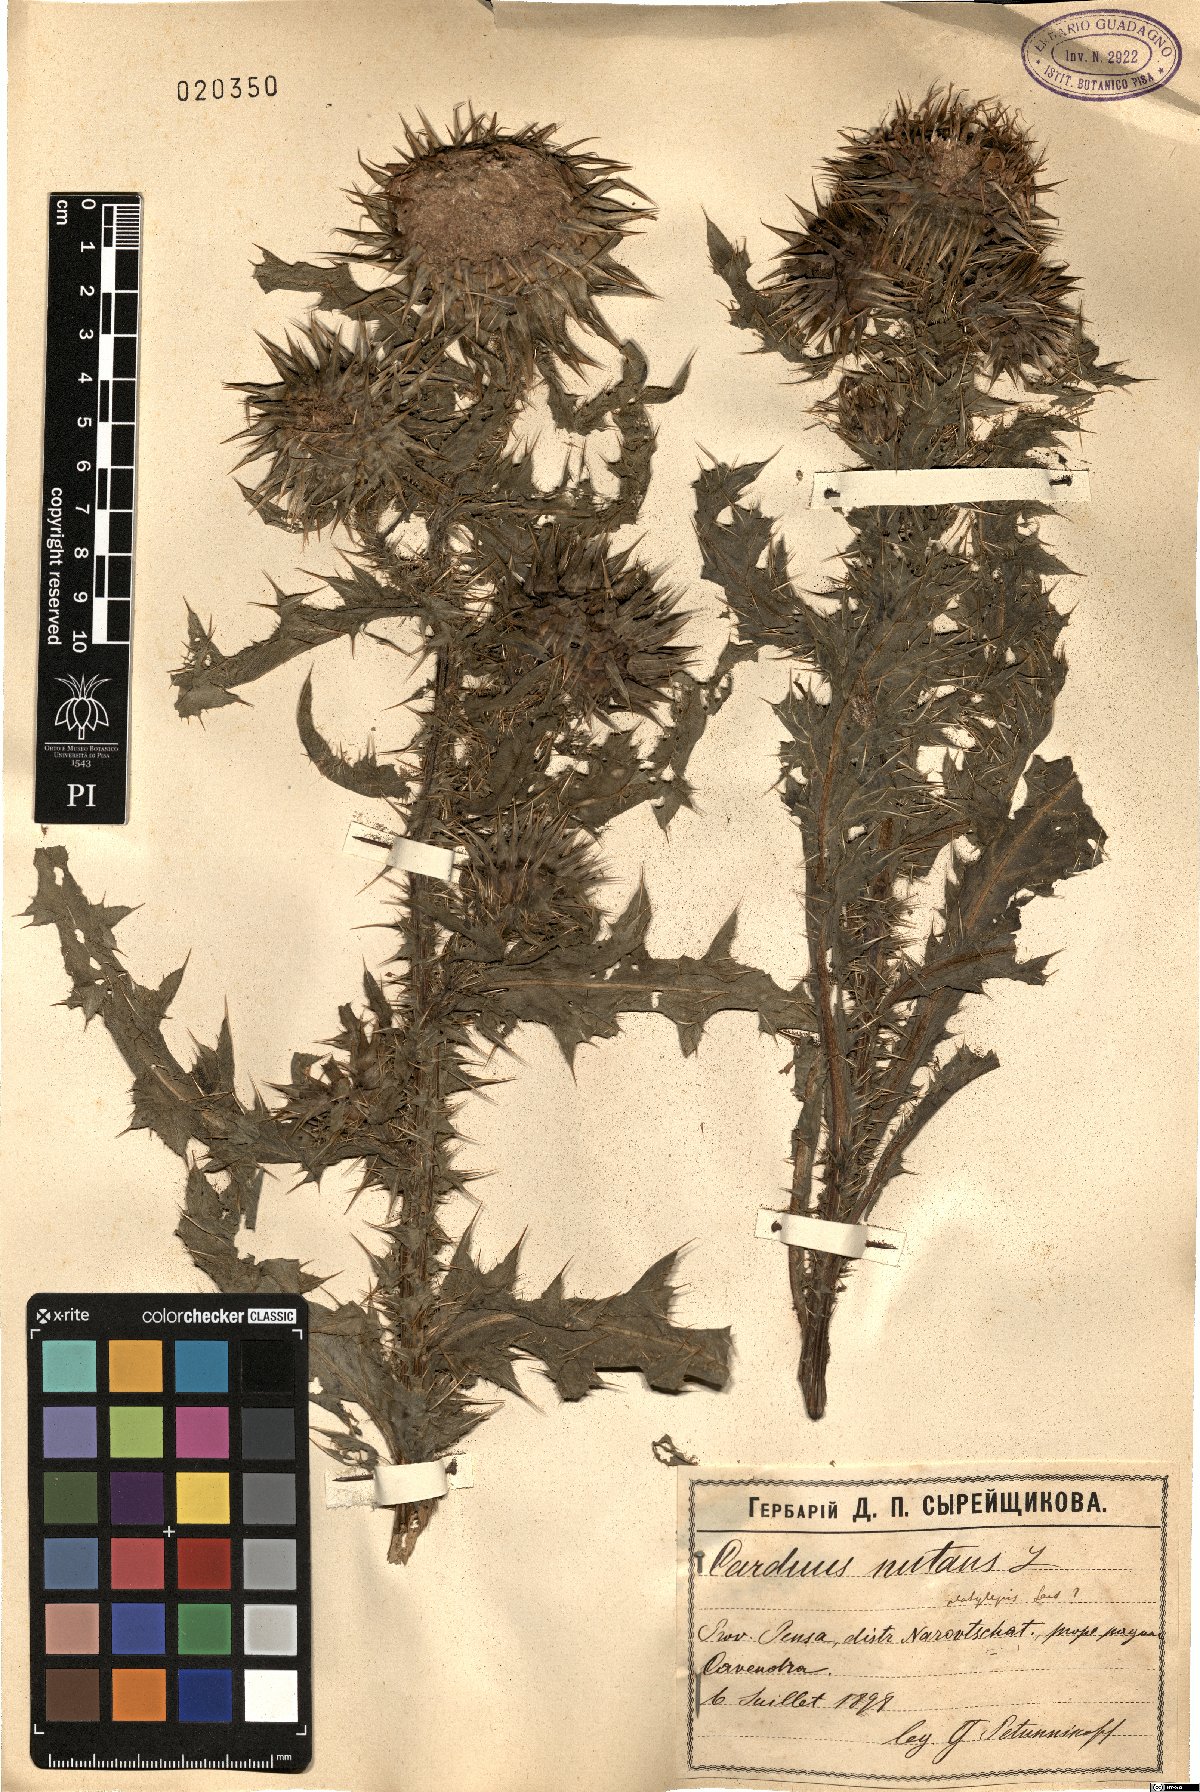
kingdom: Plantae
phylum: Tracheophyta
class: Magnoliopsida
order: Asterales
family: Asteraceae
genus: Carduus
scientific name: Carduus nutans
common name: Musk thistle
